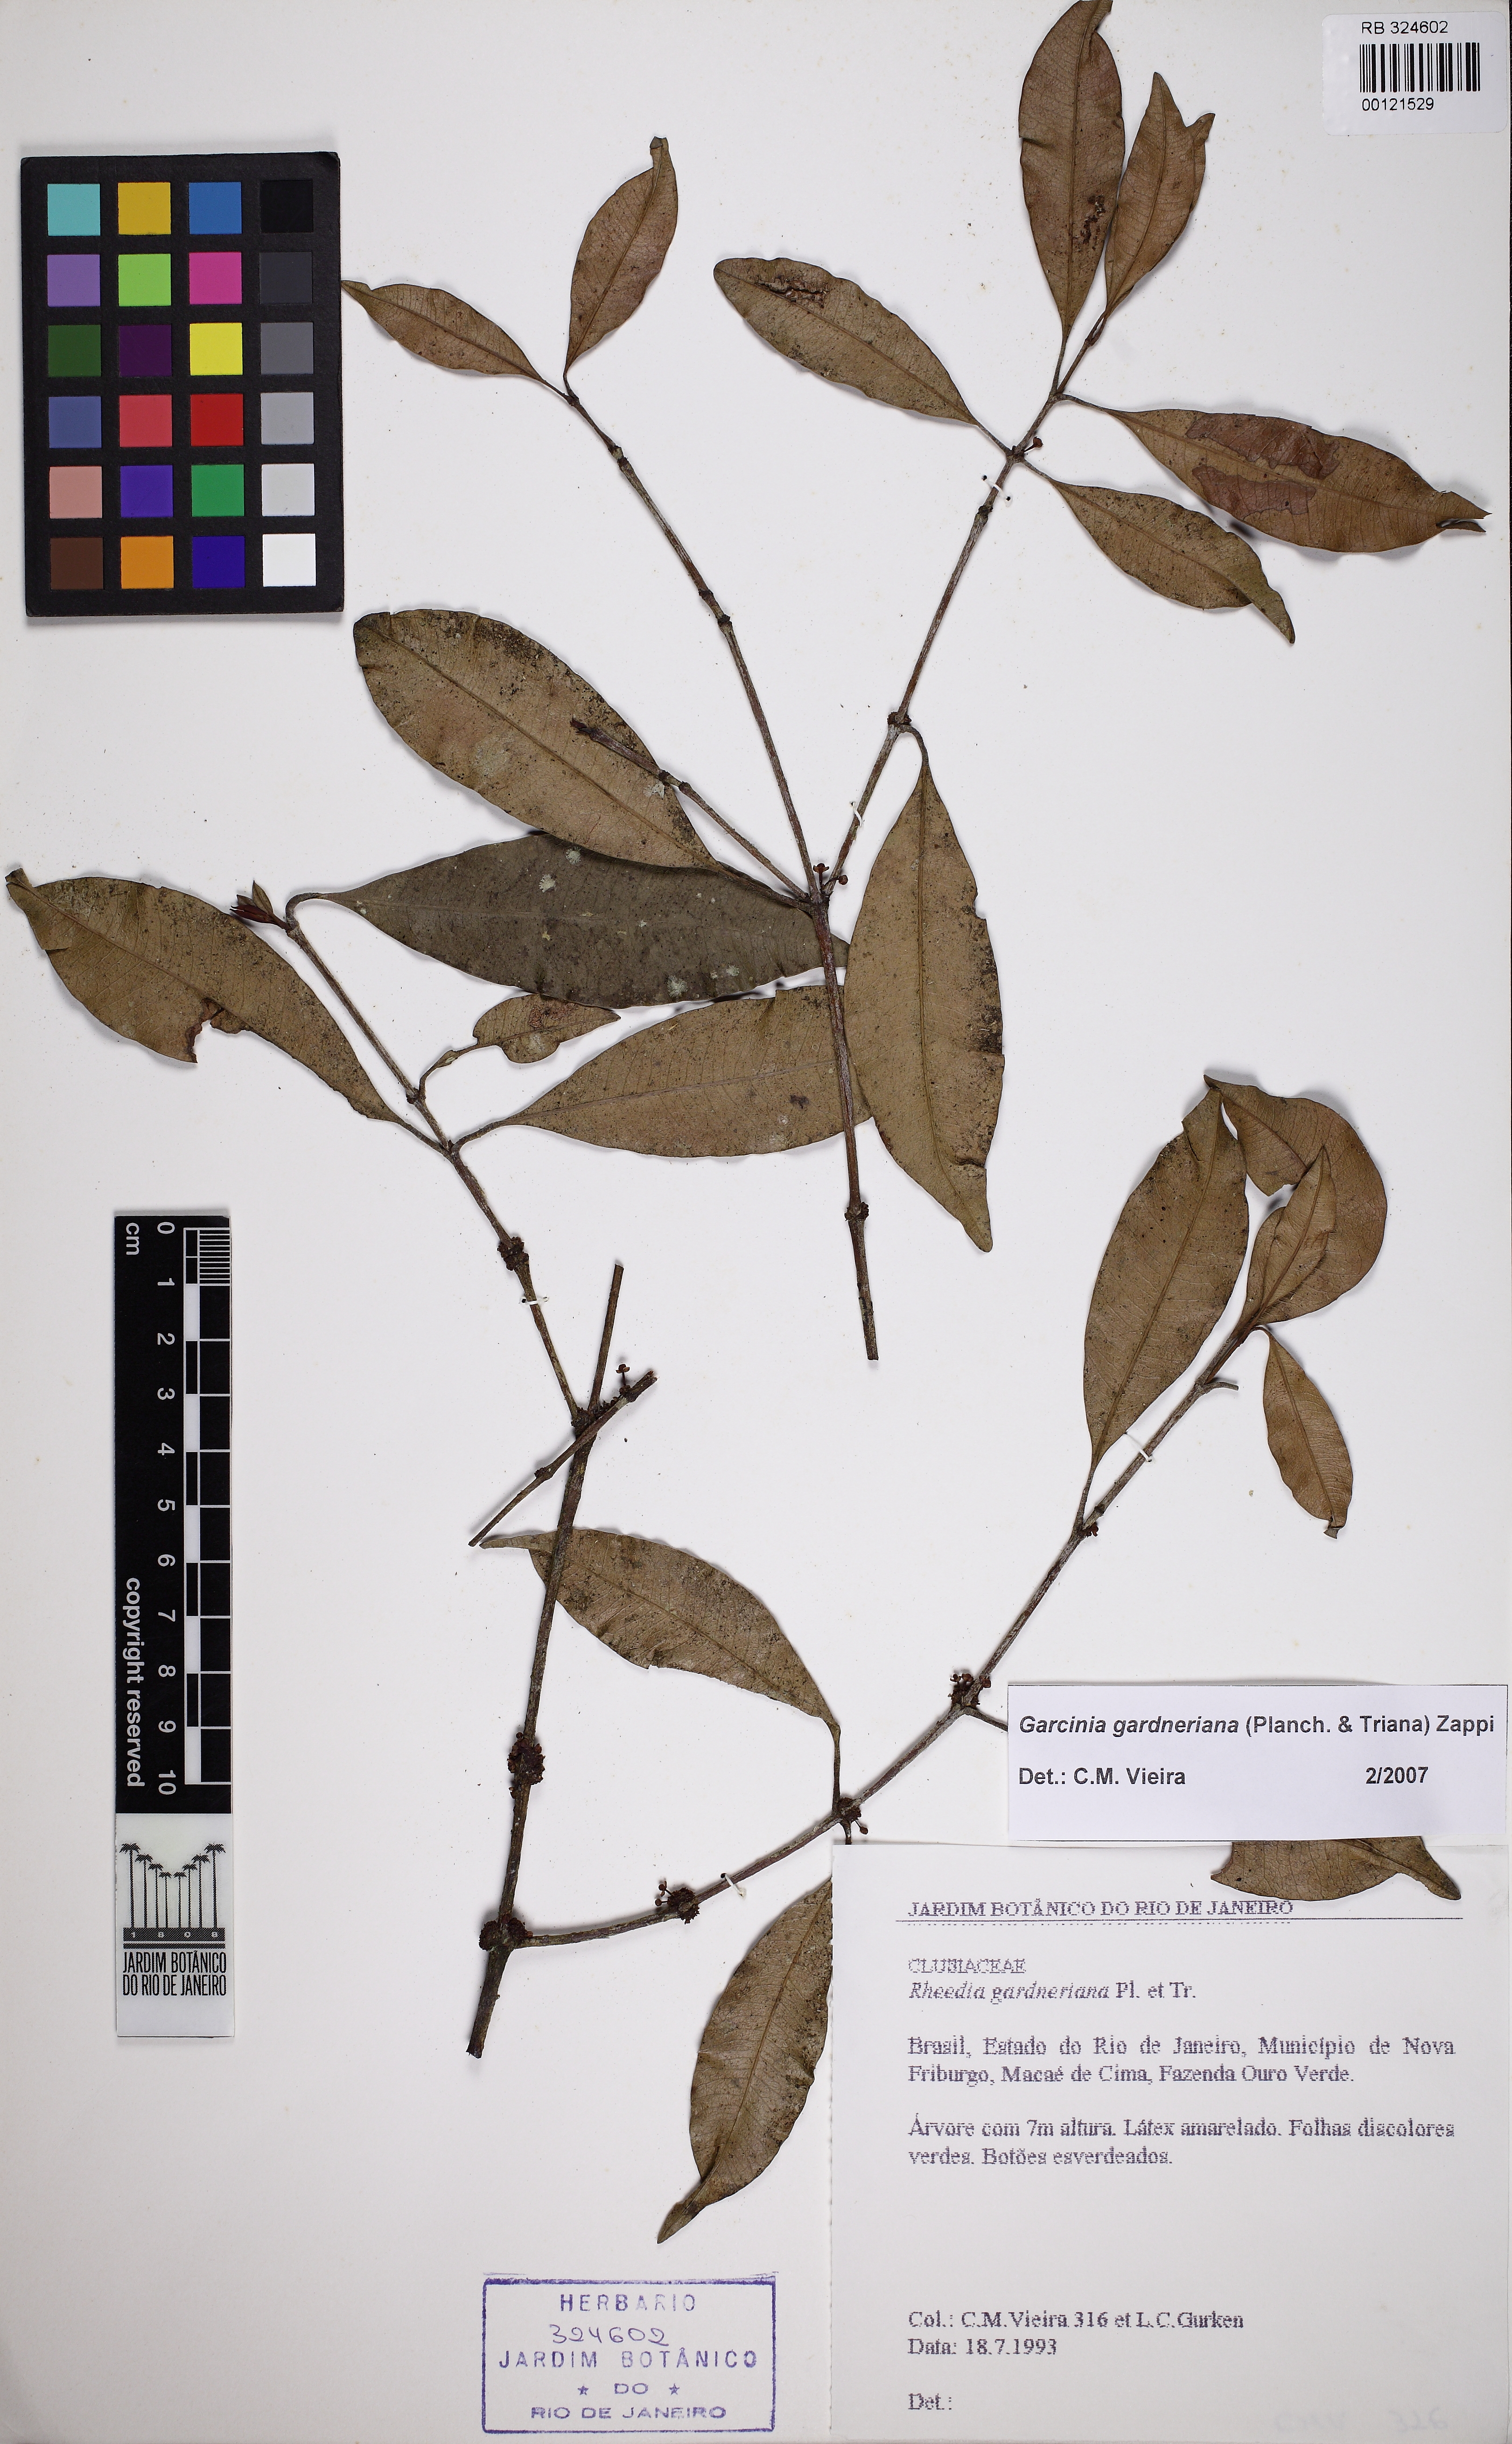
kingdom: Plantae
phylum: Tracheophyta
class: Magnoliopsida
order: Malpighiales
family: Clusiaceae
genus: Garcinia
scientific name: Garcinia gardneriana
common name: Achacha
